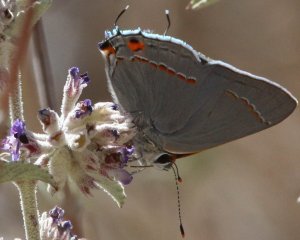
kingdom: Animalia
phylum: Arthropoda
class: Insecta
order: Lepidoptera
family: Lycaenidae
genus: Strymon
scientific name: Strymon melinus
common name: Gray Hairstreak
